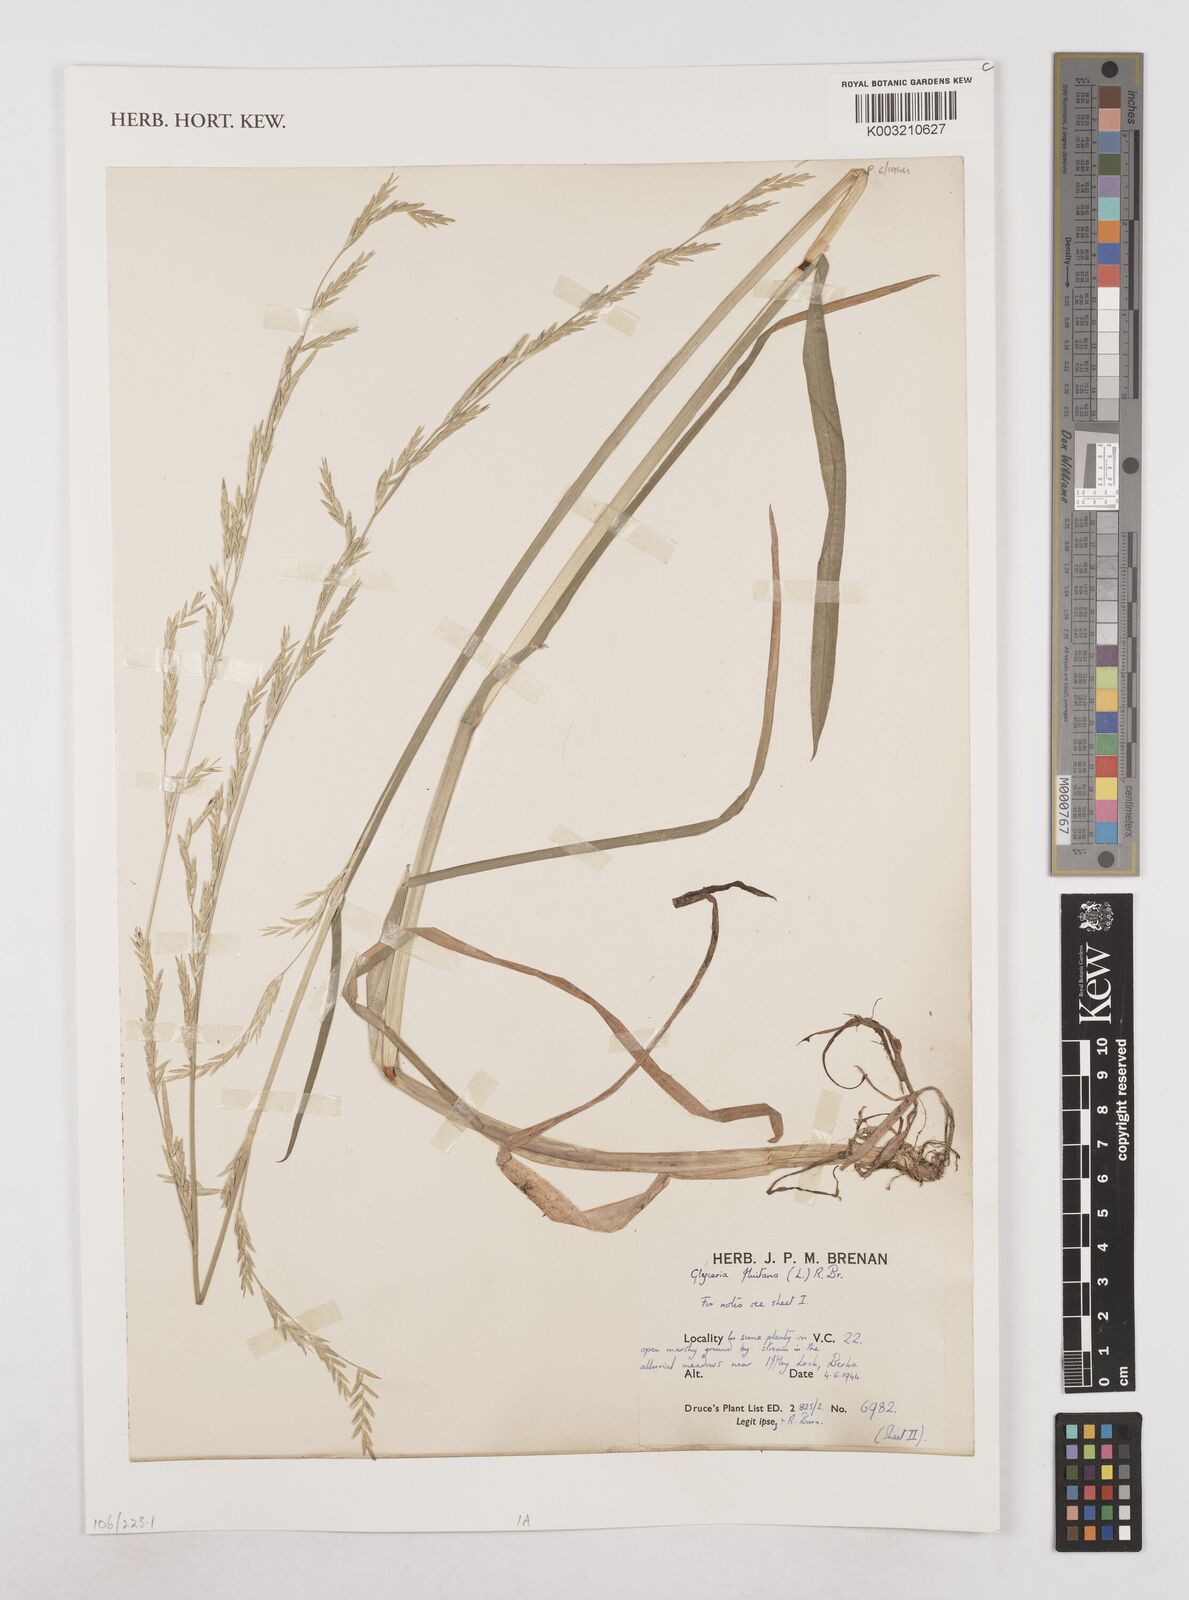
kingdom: Plantae
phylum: Tracheophyta
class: Liliopsida
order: Poales
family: Poaceae
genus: Glyceria
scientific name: Glyceria fluitans
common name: Floating sweet-grass
